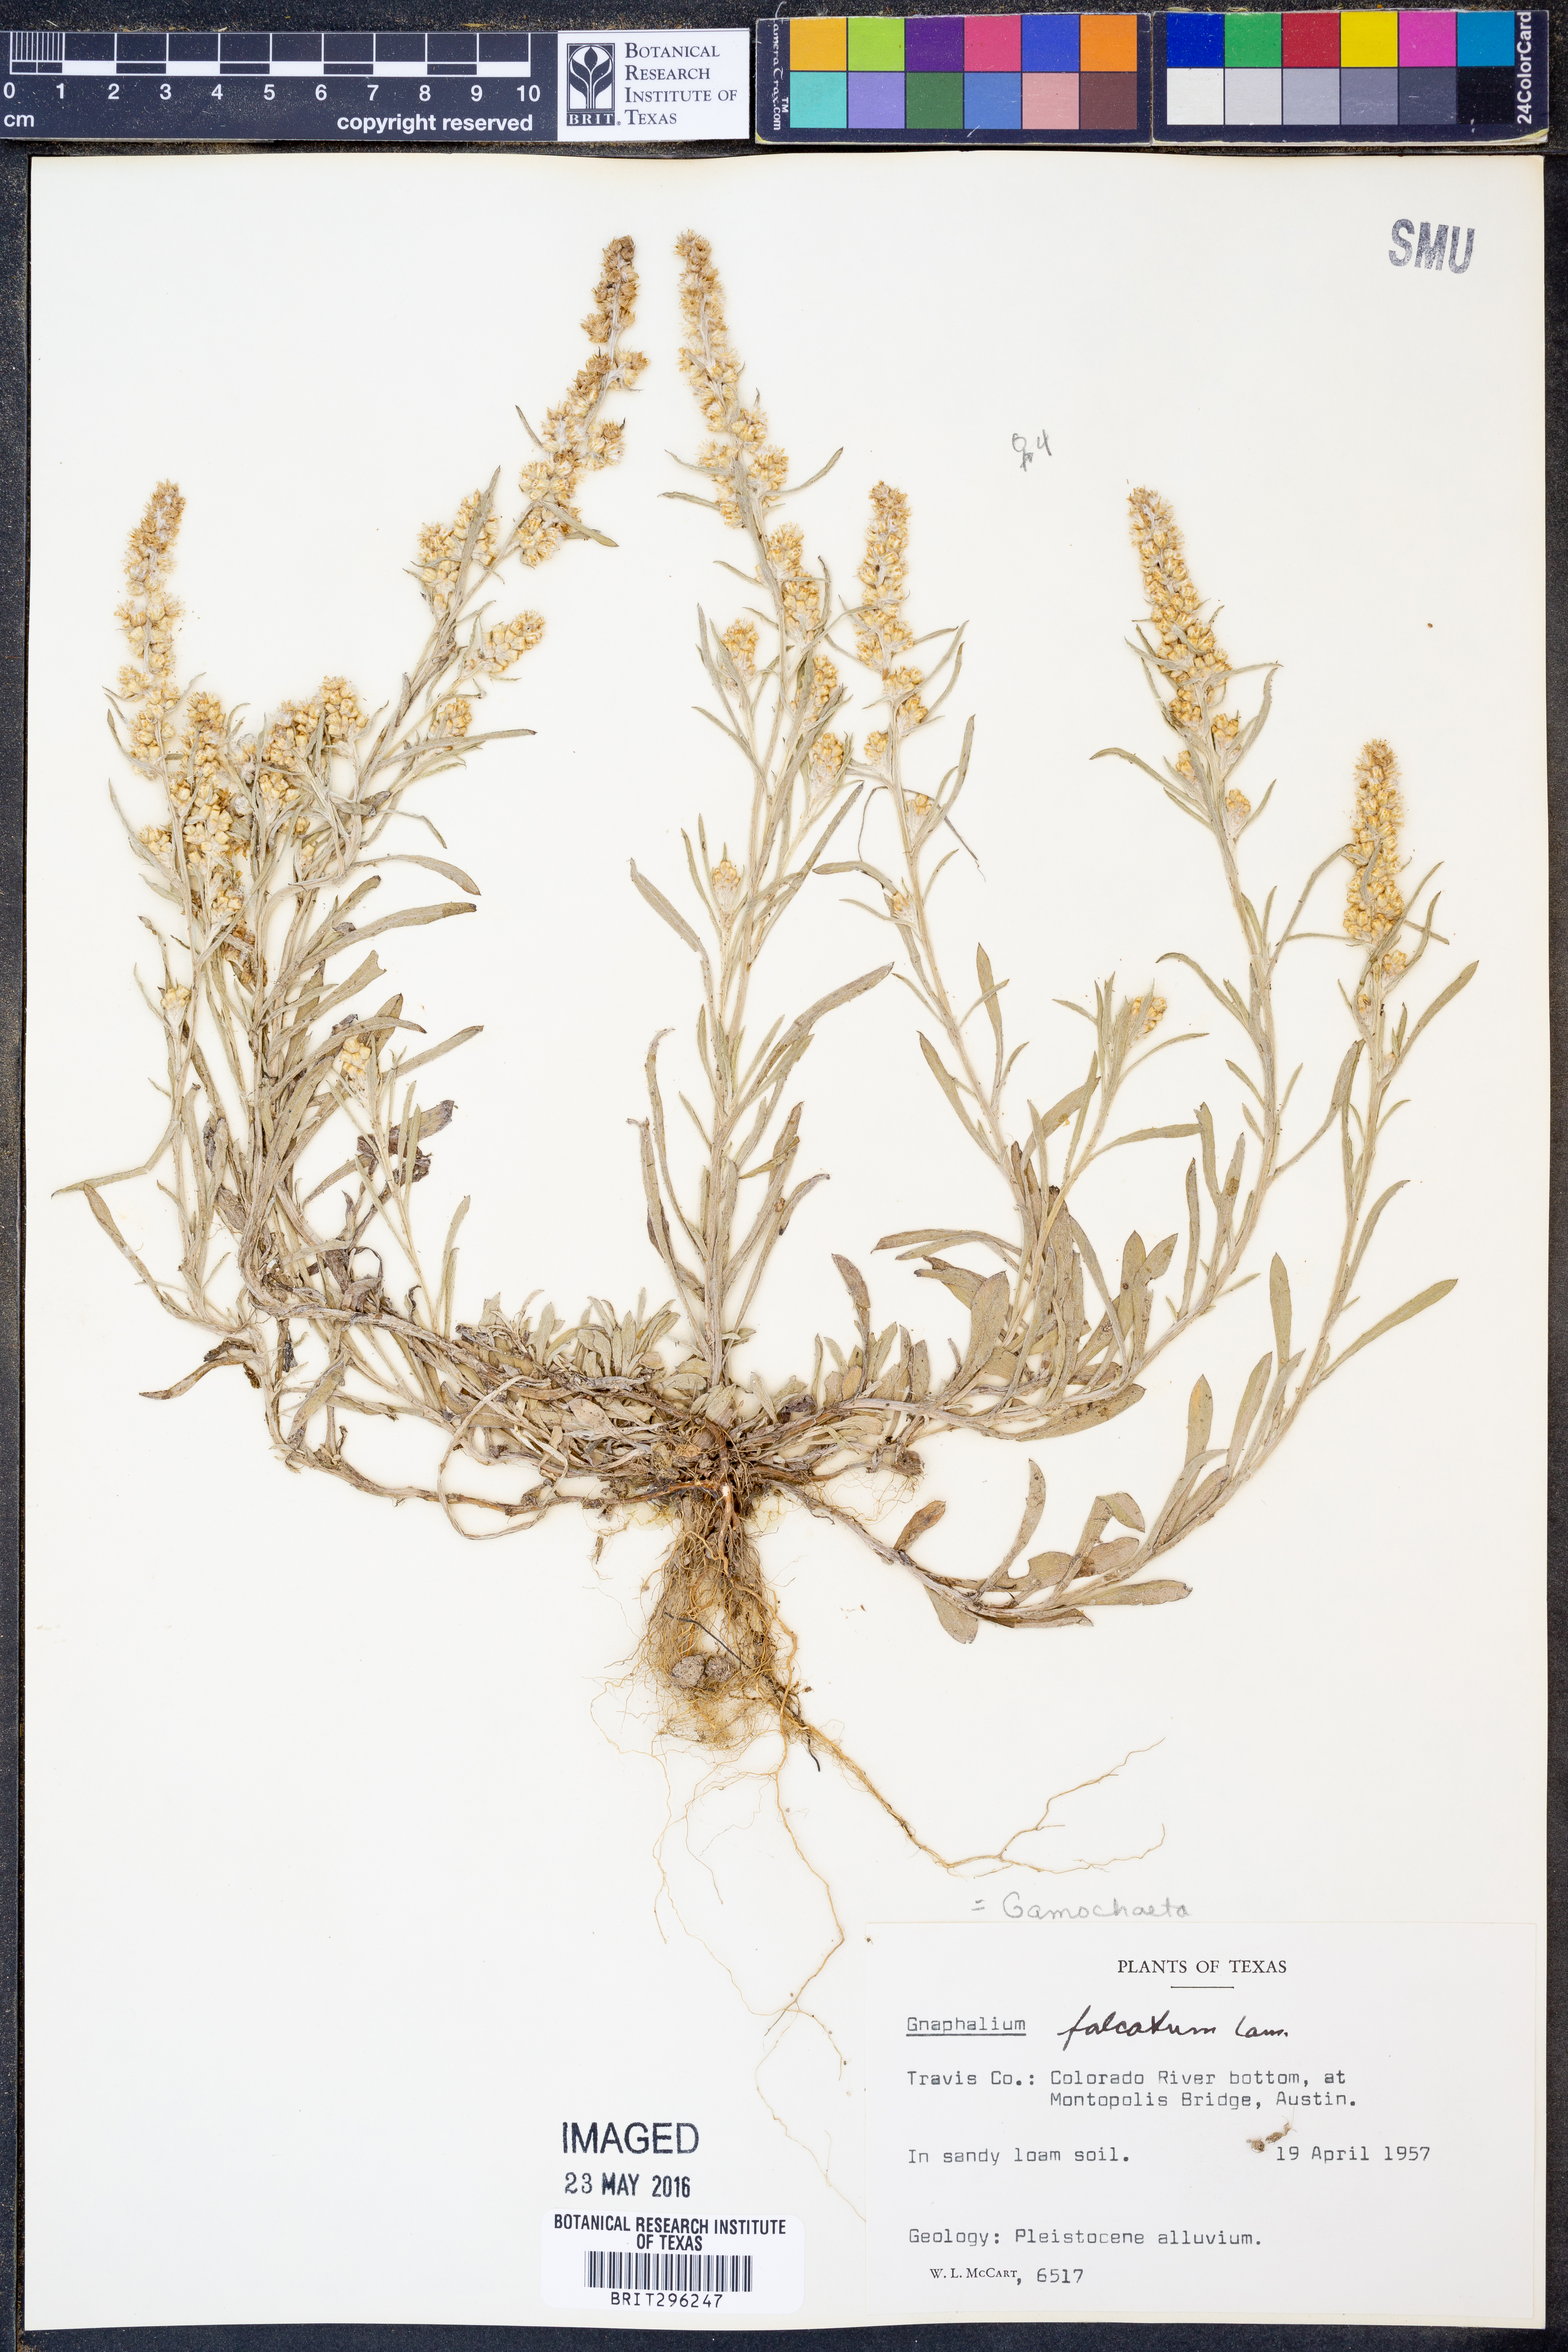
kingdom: Plantae
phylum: Tracheophyta
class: Magnoliopsida
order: Asterales
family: Asteraceae
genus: Gamochaeta
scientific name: Gamochaeta falcata
